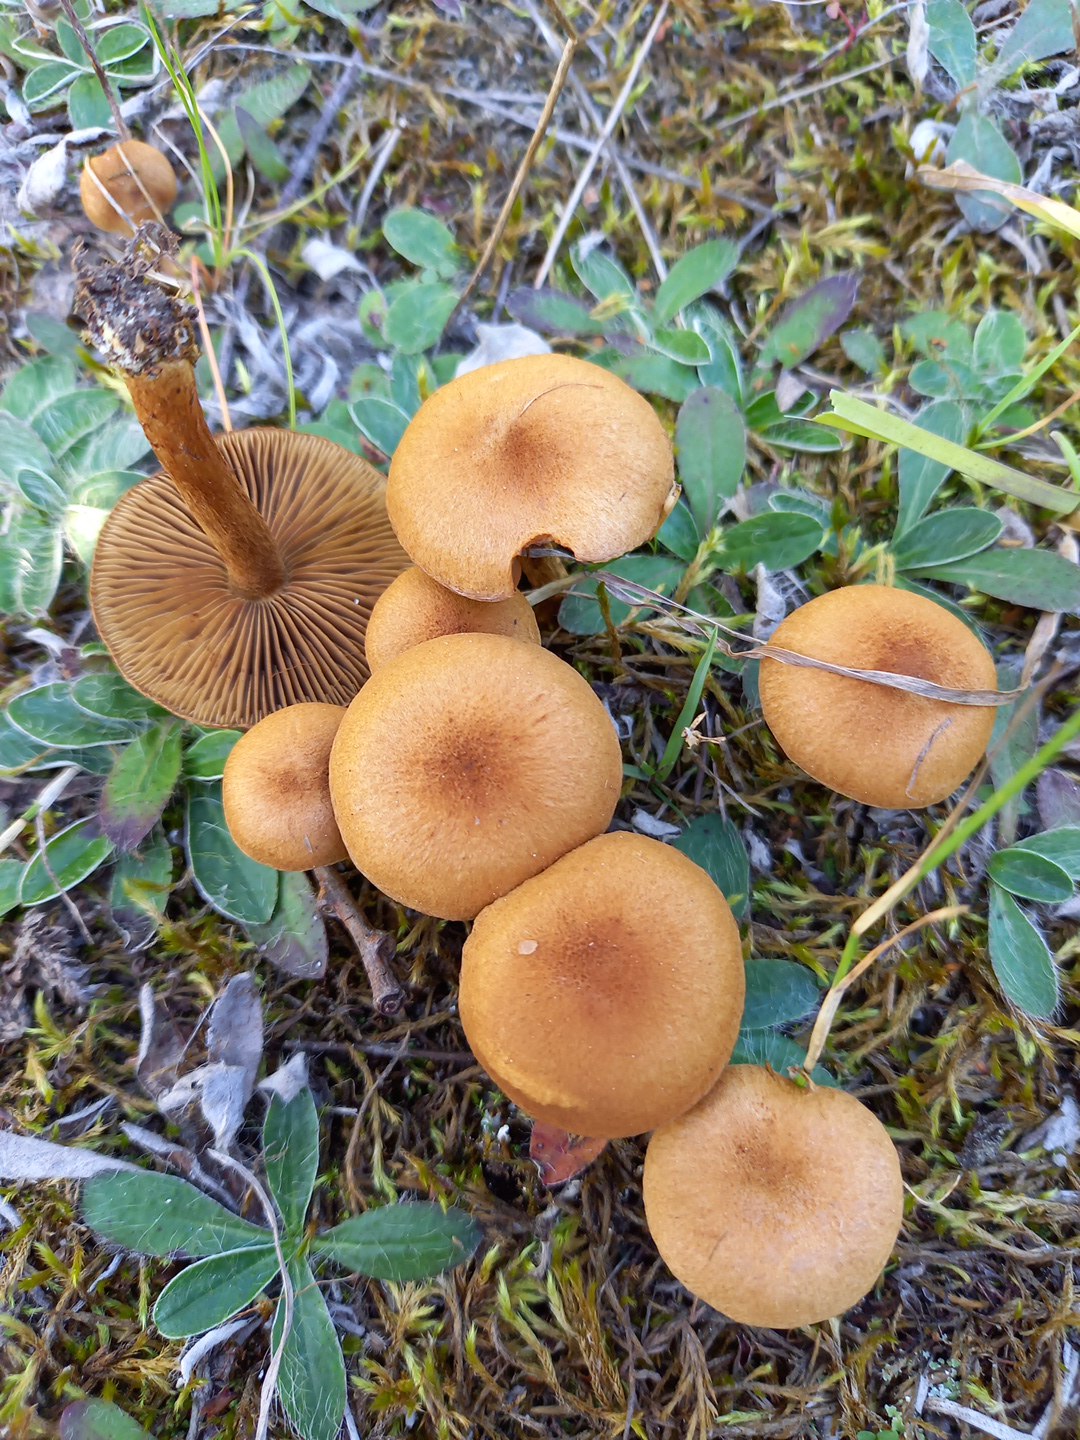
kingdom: Fungi
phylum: Basidiomycota
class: Agaricomycetes
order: Agaricales
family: Inocybaceae
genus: Mallocybe
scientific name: Mallocybe
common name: Trævlhat
